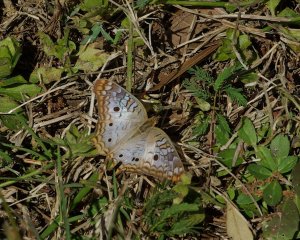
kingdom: Animalia
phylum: Arthropoda
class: Insecta
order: Lepidoptera
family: Nymphalidae
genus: Anartia
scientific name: Anartia jatrophae
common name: White Peacock
